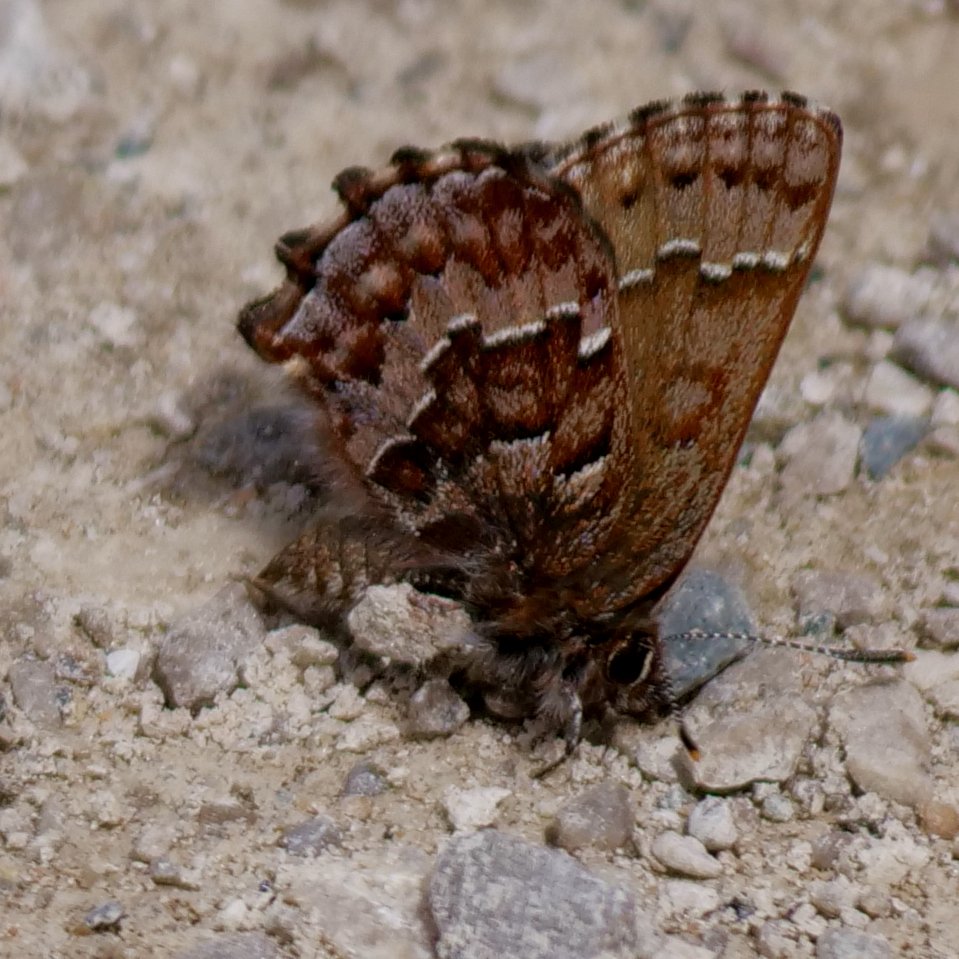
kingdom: Animalia
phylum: Arthropoda
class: Insecta
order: Lepidoptera
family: Lycaenidae
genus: Incisalia
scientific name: Incisalia niphon
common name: Eastern Pine Elfin
